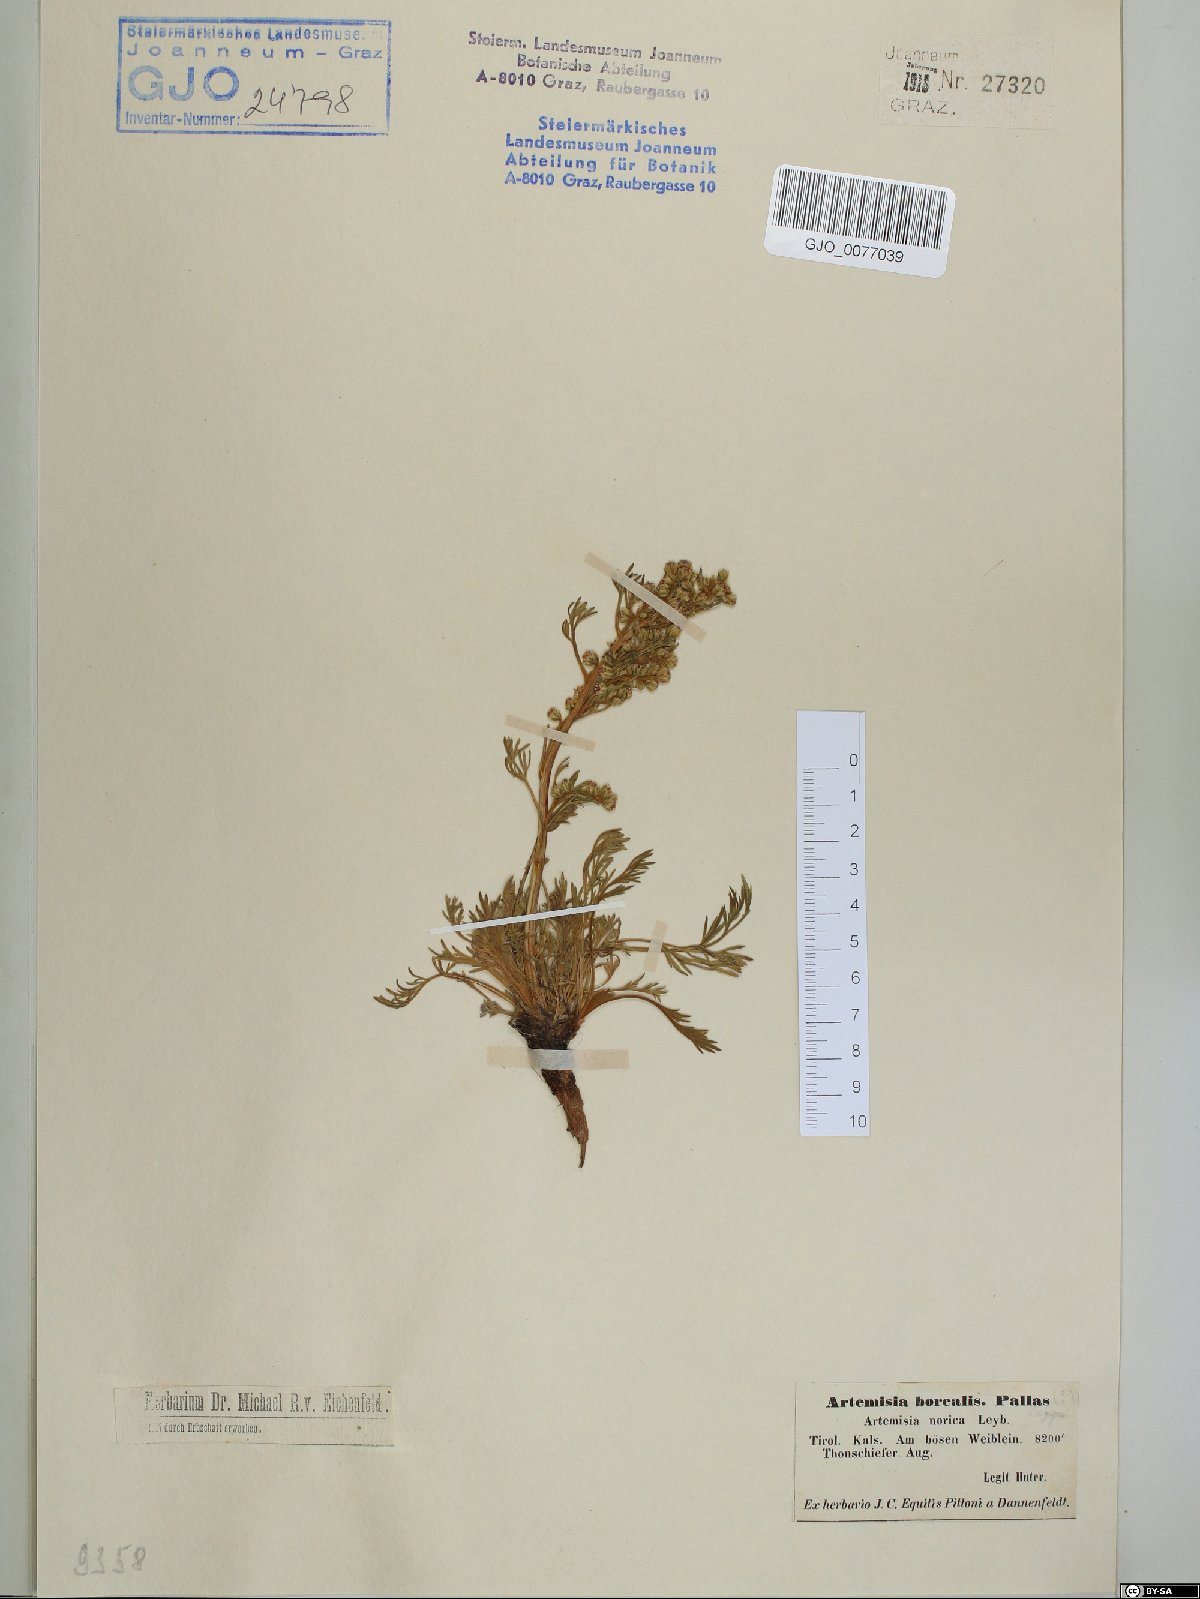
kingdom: Plantae
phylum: Tracheophyta
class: Magnoliopsida
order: Asterales
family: Asteraceae
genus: Artemisia
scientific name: Artemisia borealis
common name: Boreal sage
